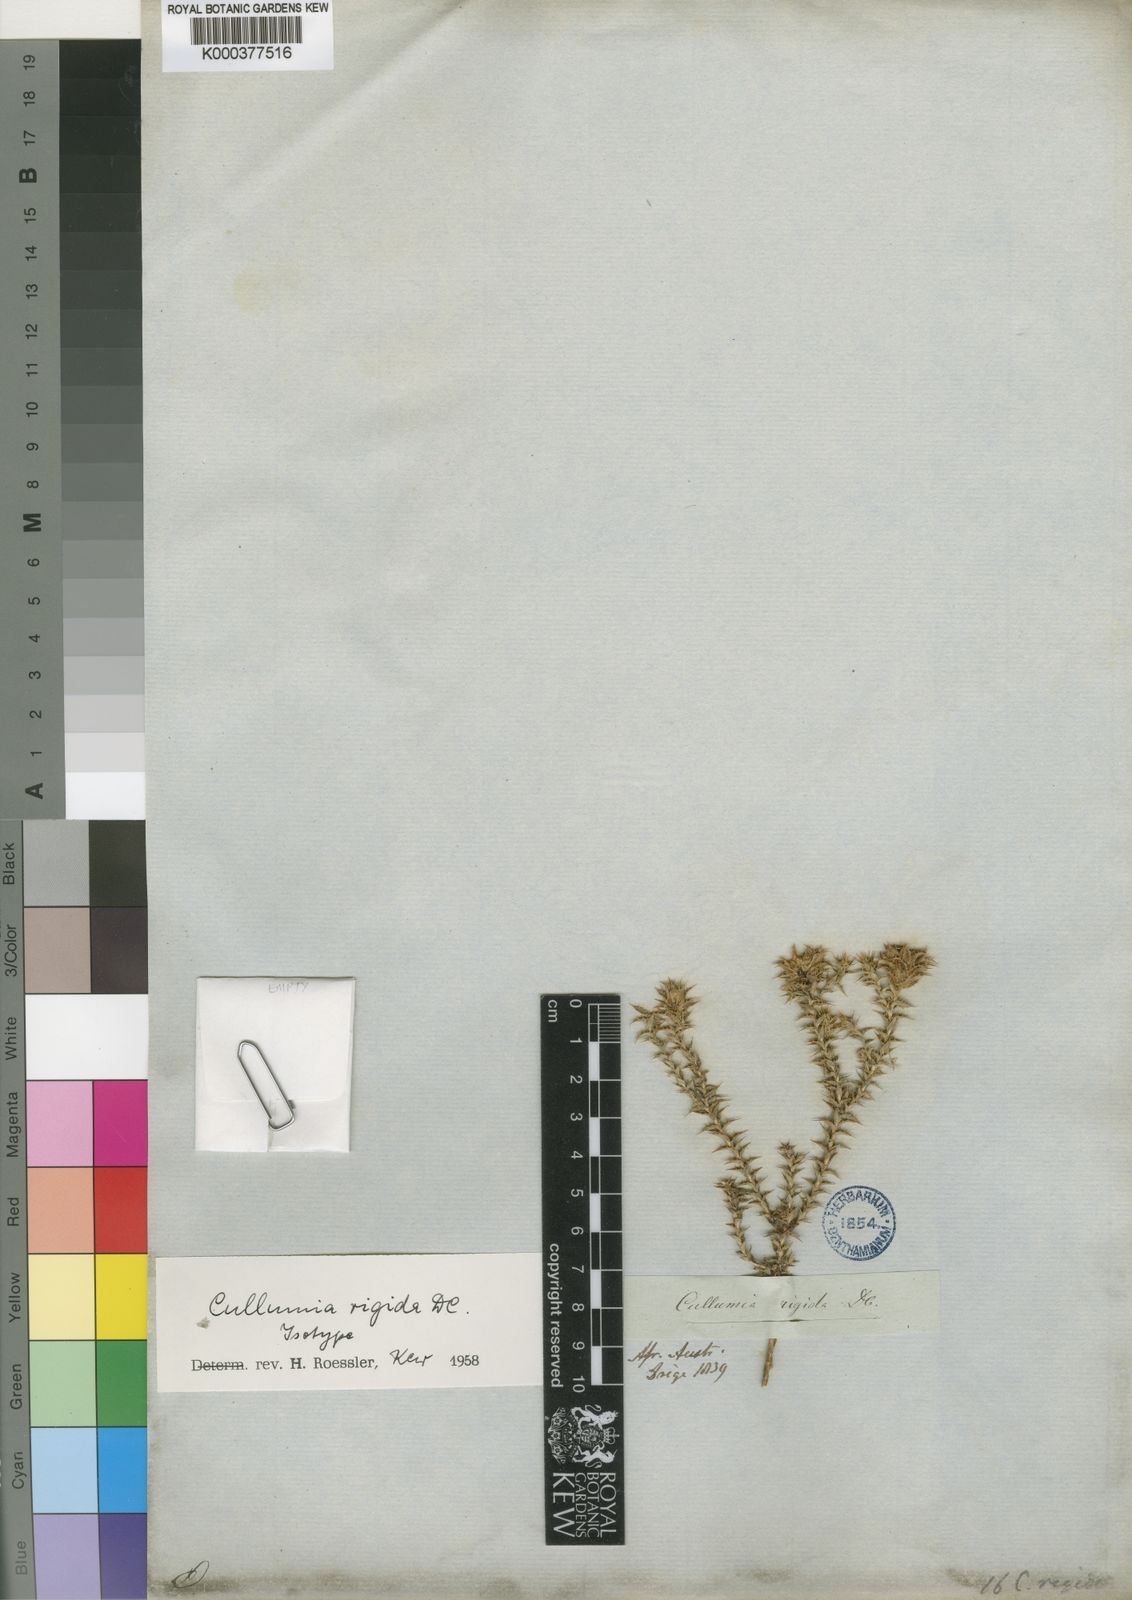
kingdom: Plantae
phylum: Tracheophyta
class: Magnoliopsida
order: Asterales
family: Asteraceae
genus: Cullumia
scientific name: Cullumia rigida
